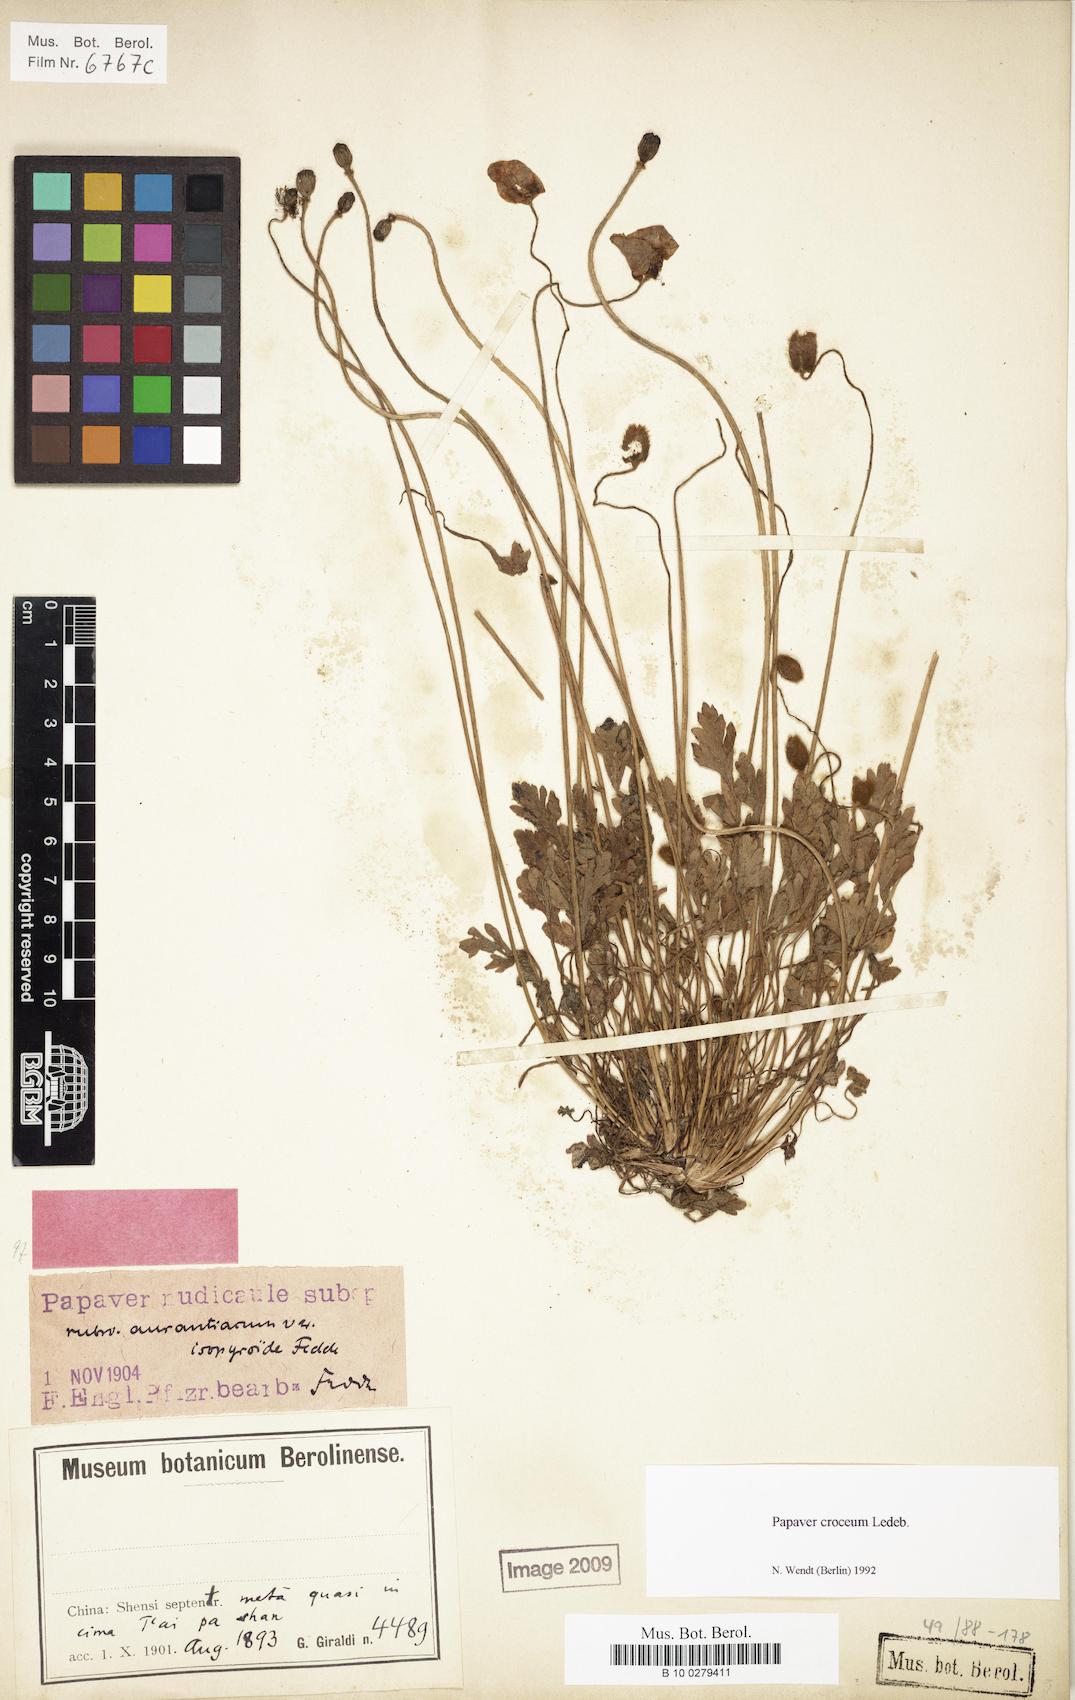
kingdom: Plantae
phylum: Tracheophyta
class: Magnoliopsida
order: Ranunculales
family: Papaveraceae
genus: Papaver
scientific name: Papaver croceum
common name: Siberian poppy
